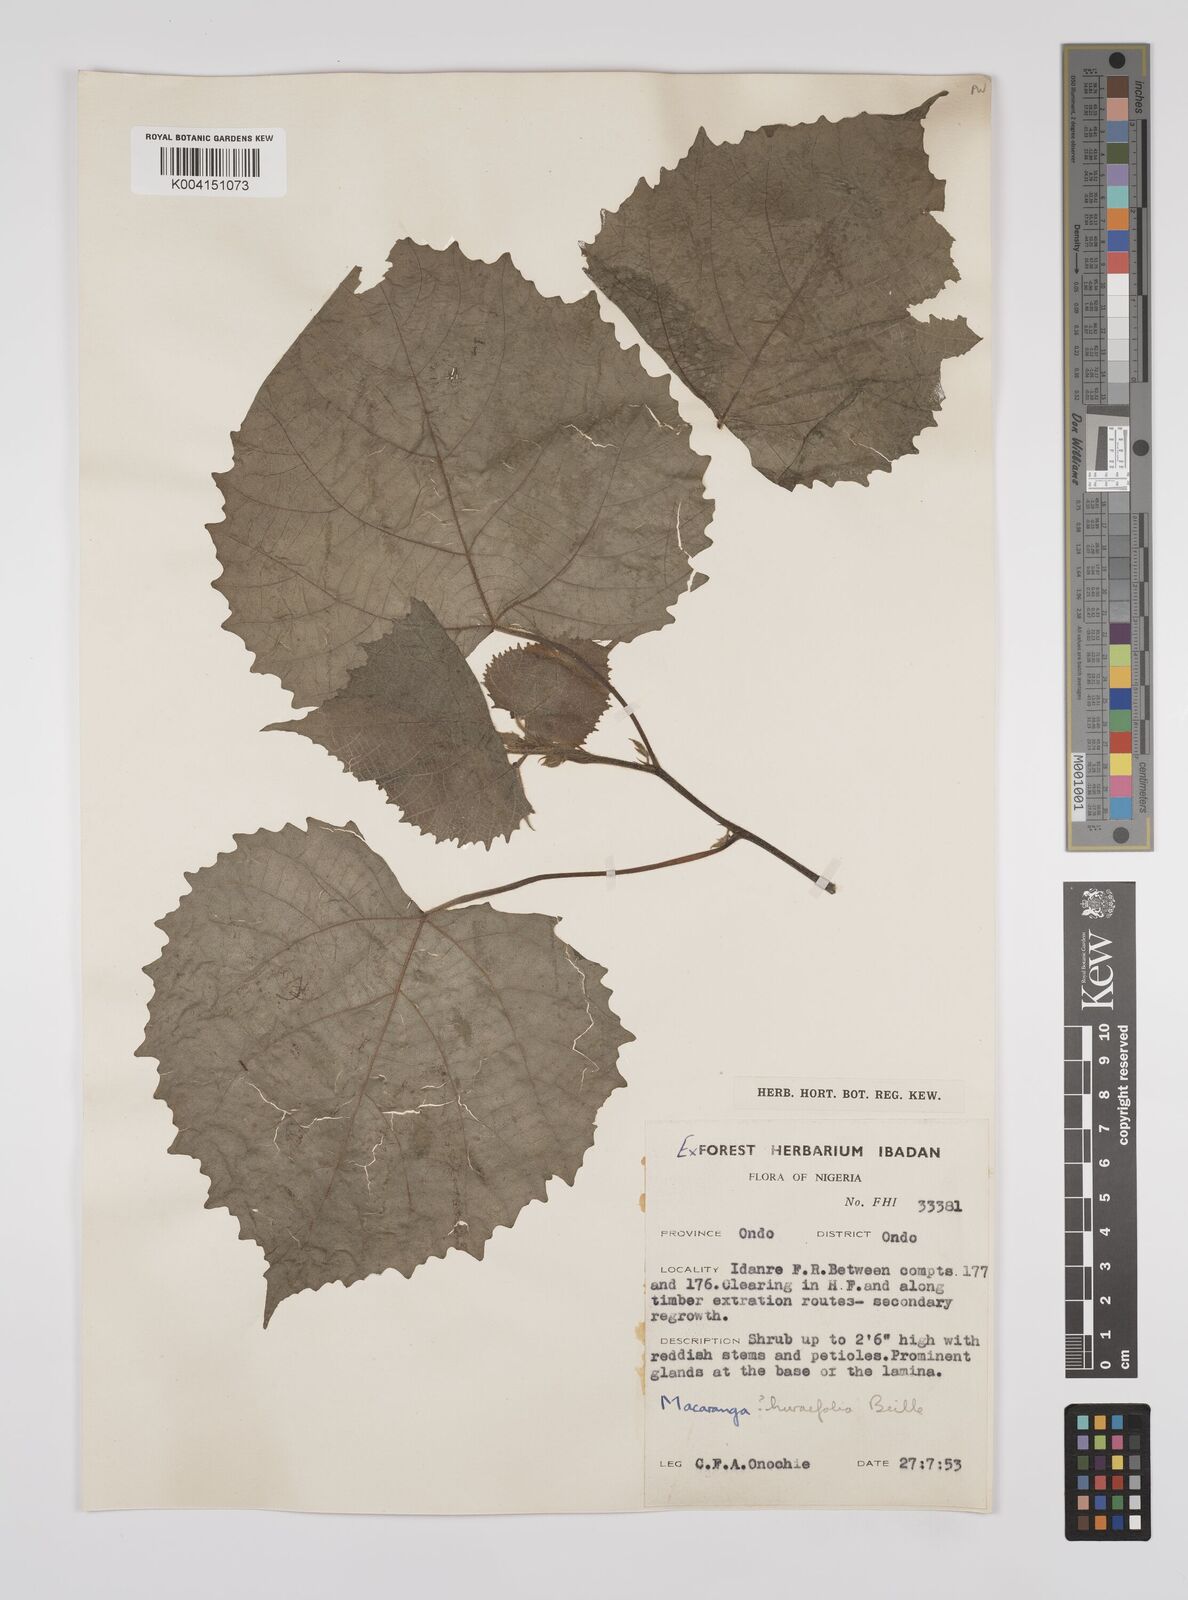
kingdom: Plantae
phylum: Tracheophyta
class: Magnoliopsida
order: Malpighiales
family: Euphorbiaceae
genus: Macaranga
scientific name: Macaranga hurifolia
